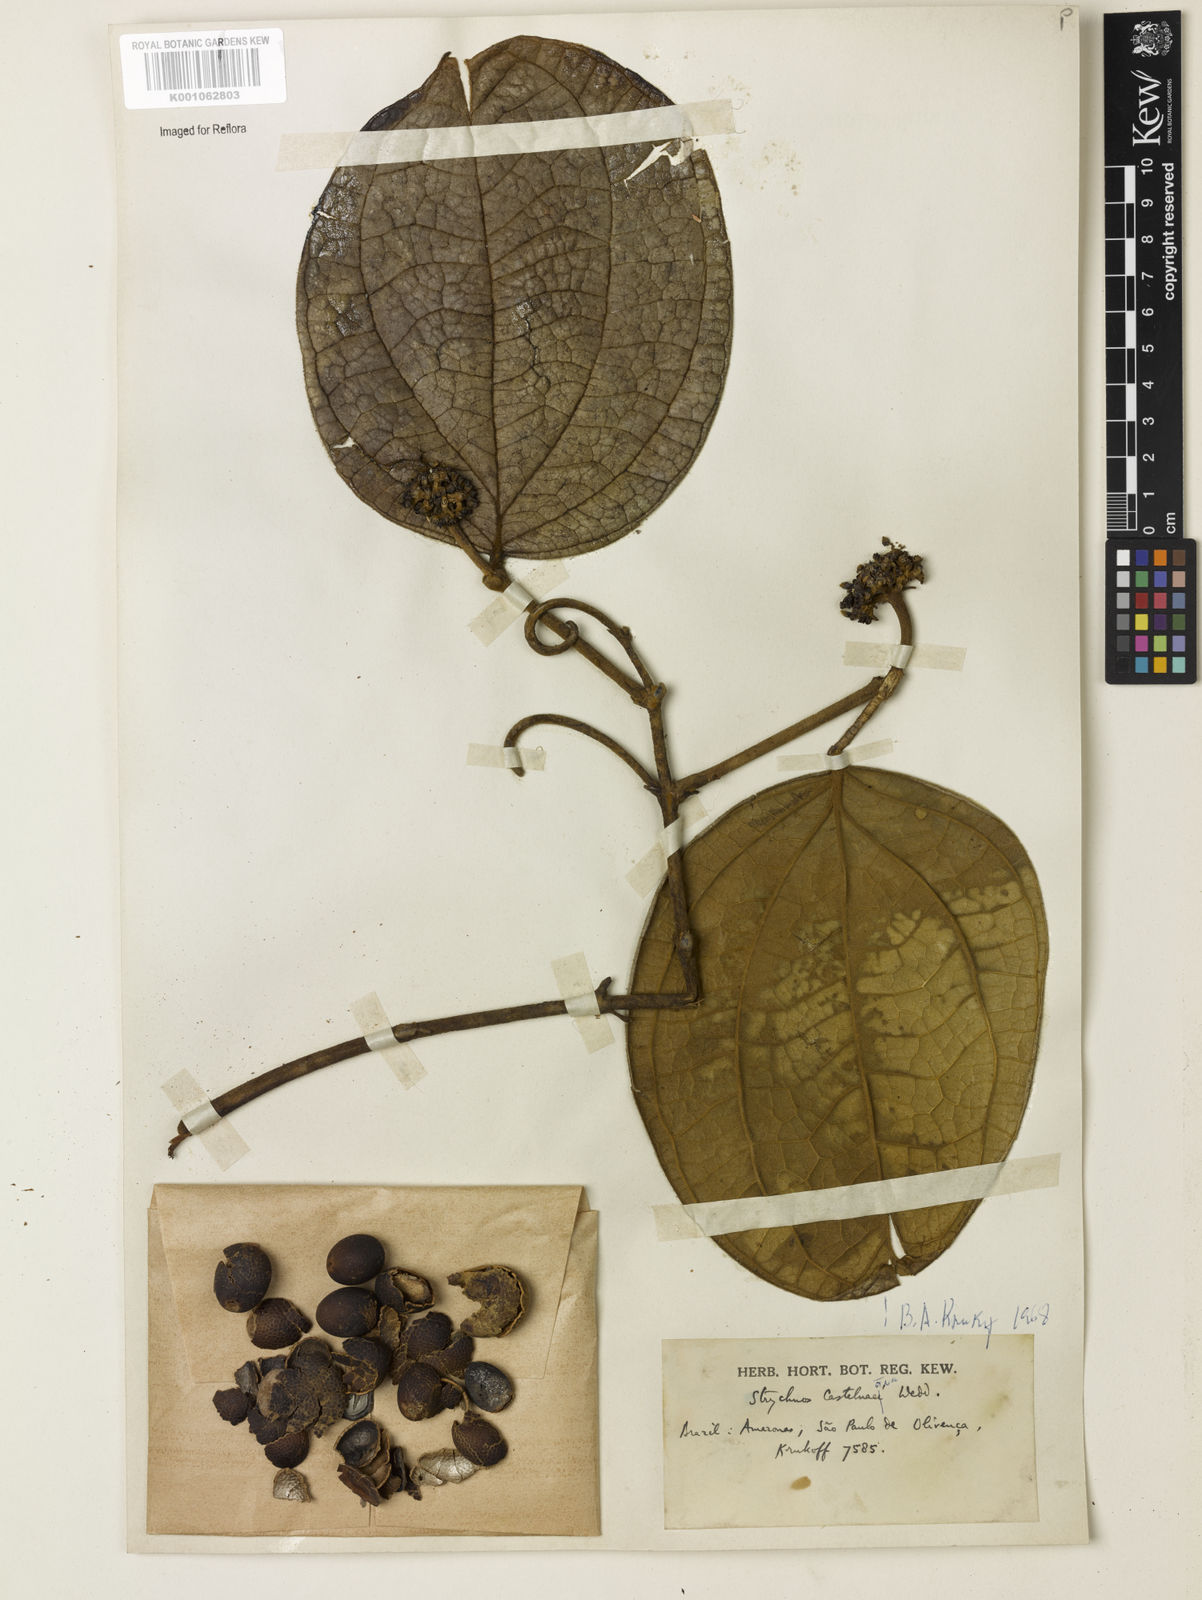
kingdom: Plantae
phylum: Tracheophyta
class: Magnoliopsida
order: Gentianales
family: Loganiaceae
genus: Strychnos
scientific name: Strychnos
